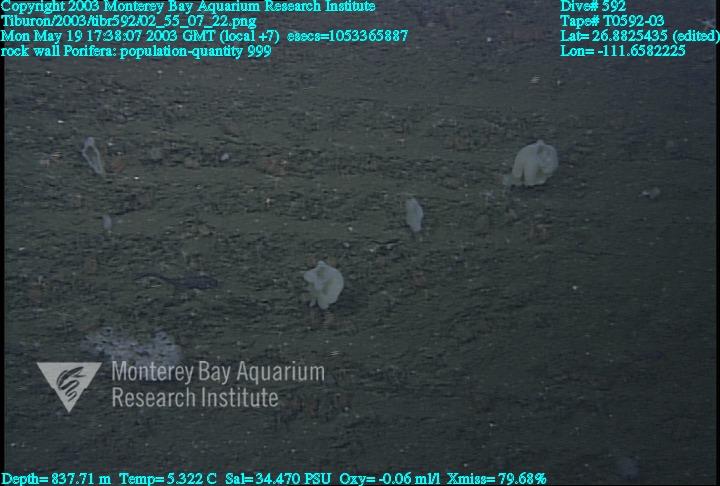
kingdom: Animalia
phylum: Porifera
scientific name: Porifera
